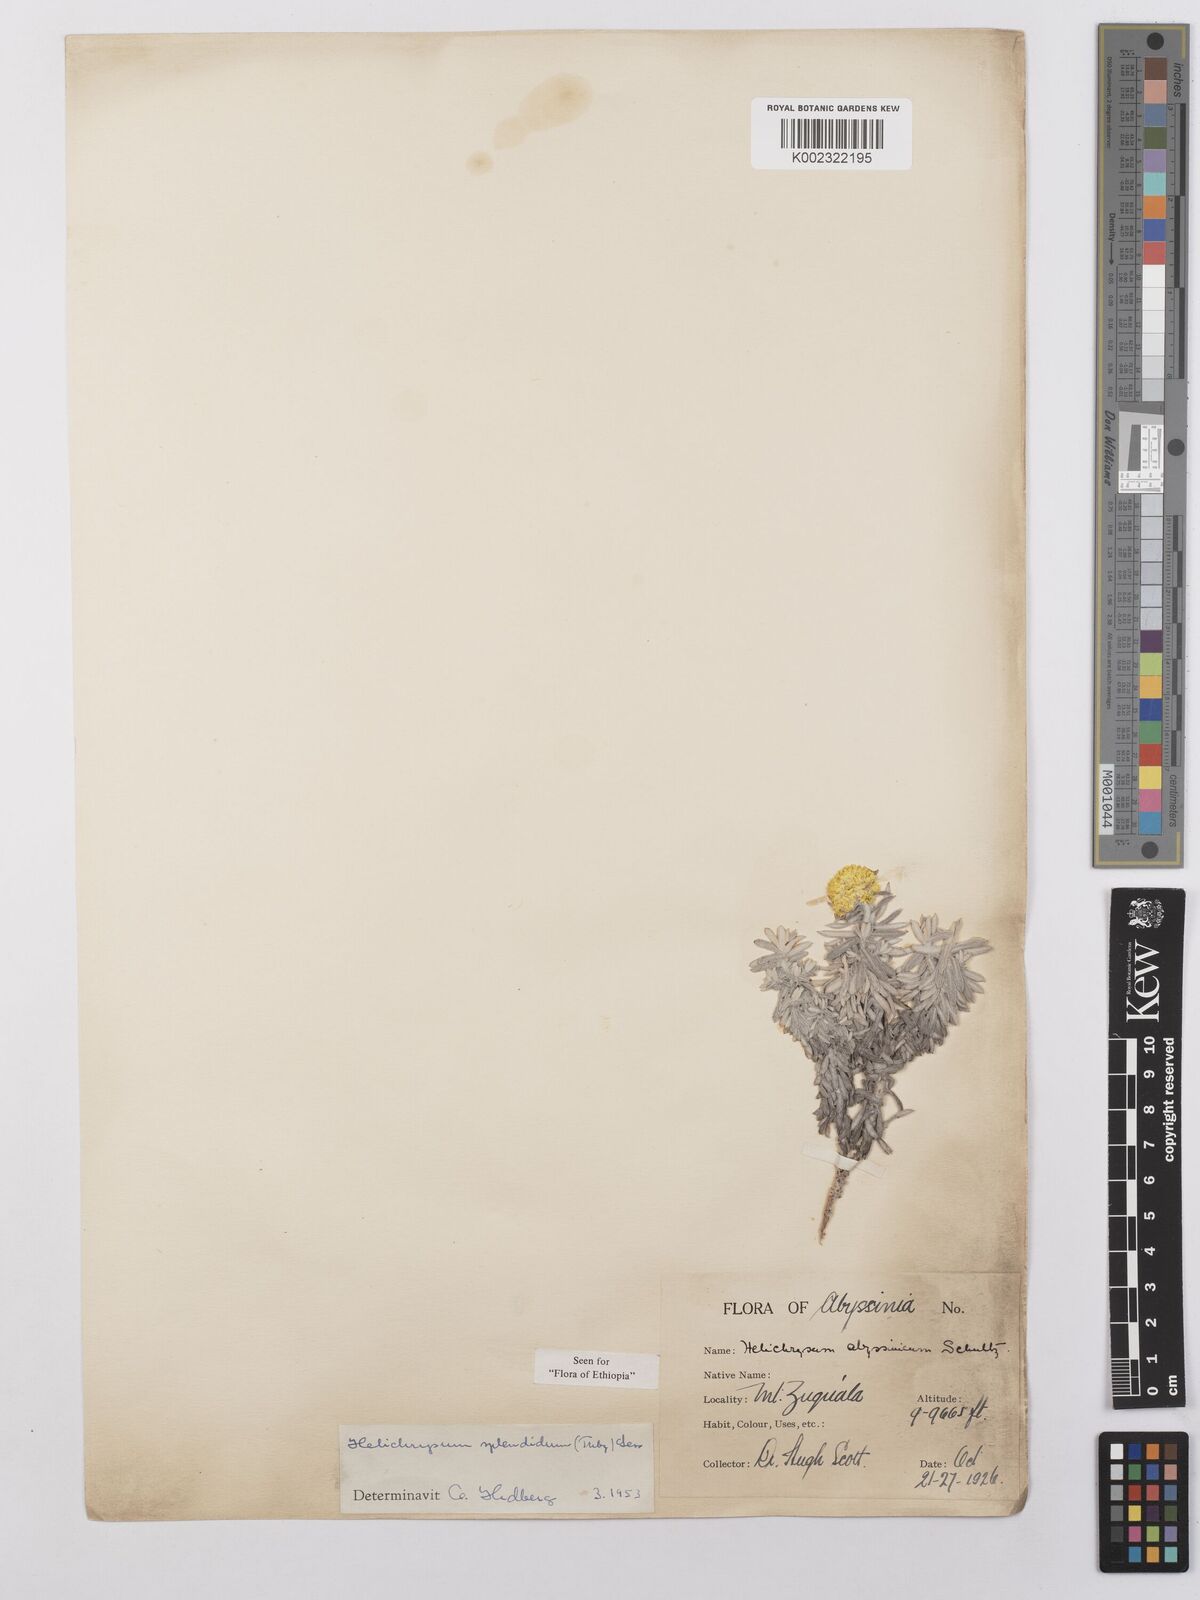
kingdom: Plantae
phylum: Tracheophyta
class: Magnoliopsida
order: Asterales
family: Asteraceae
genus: Helichrysum
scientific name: Helichrysum splendidum
